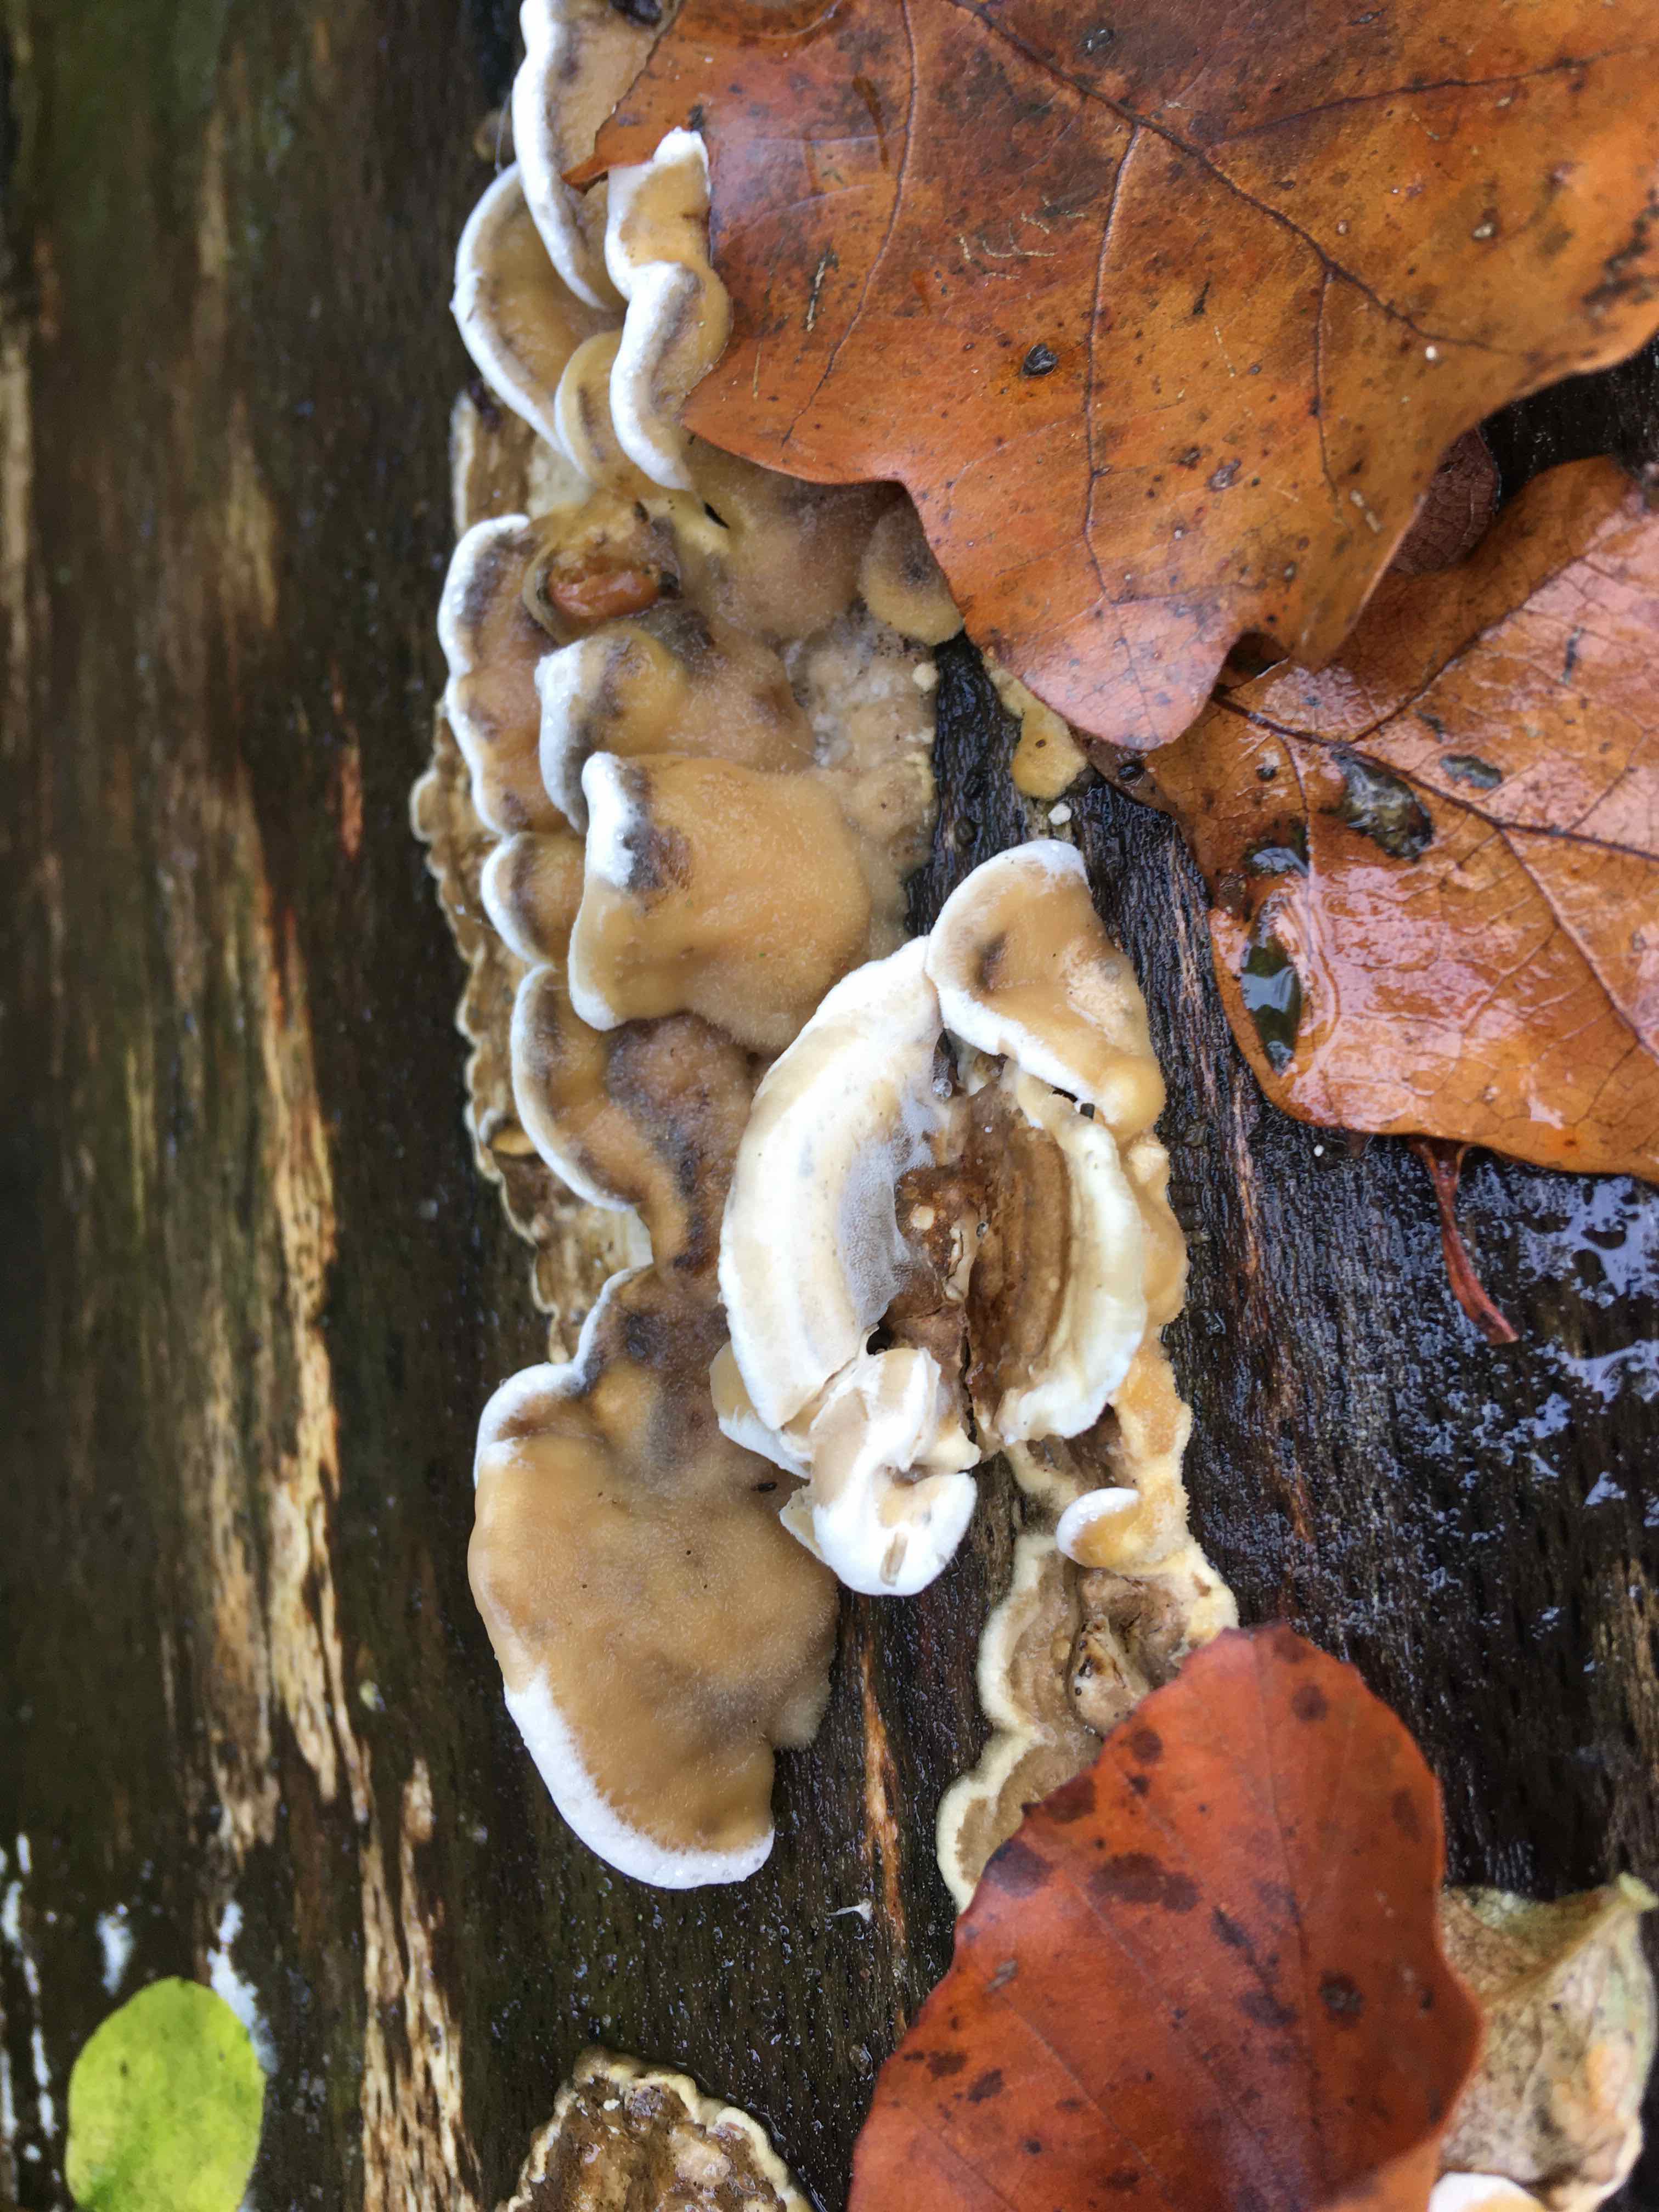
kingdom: Fungi
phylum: Basidiomycota
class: Agaricomycetes
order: Polyporales
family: Phanerochaetaceae
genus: Bjerkandera
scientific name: Bjerkandera adusta
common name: sveden sodporesvamp
